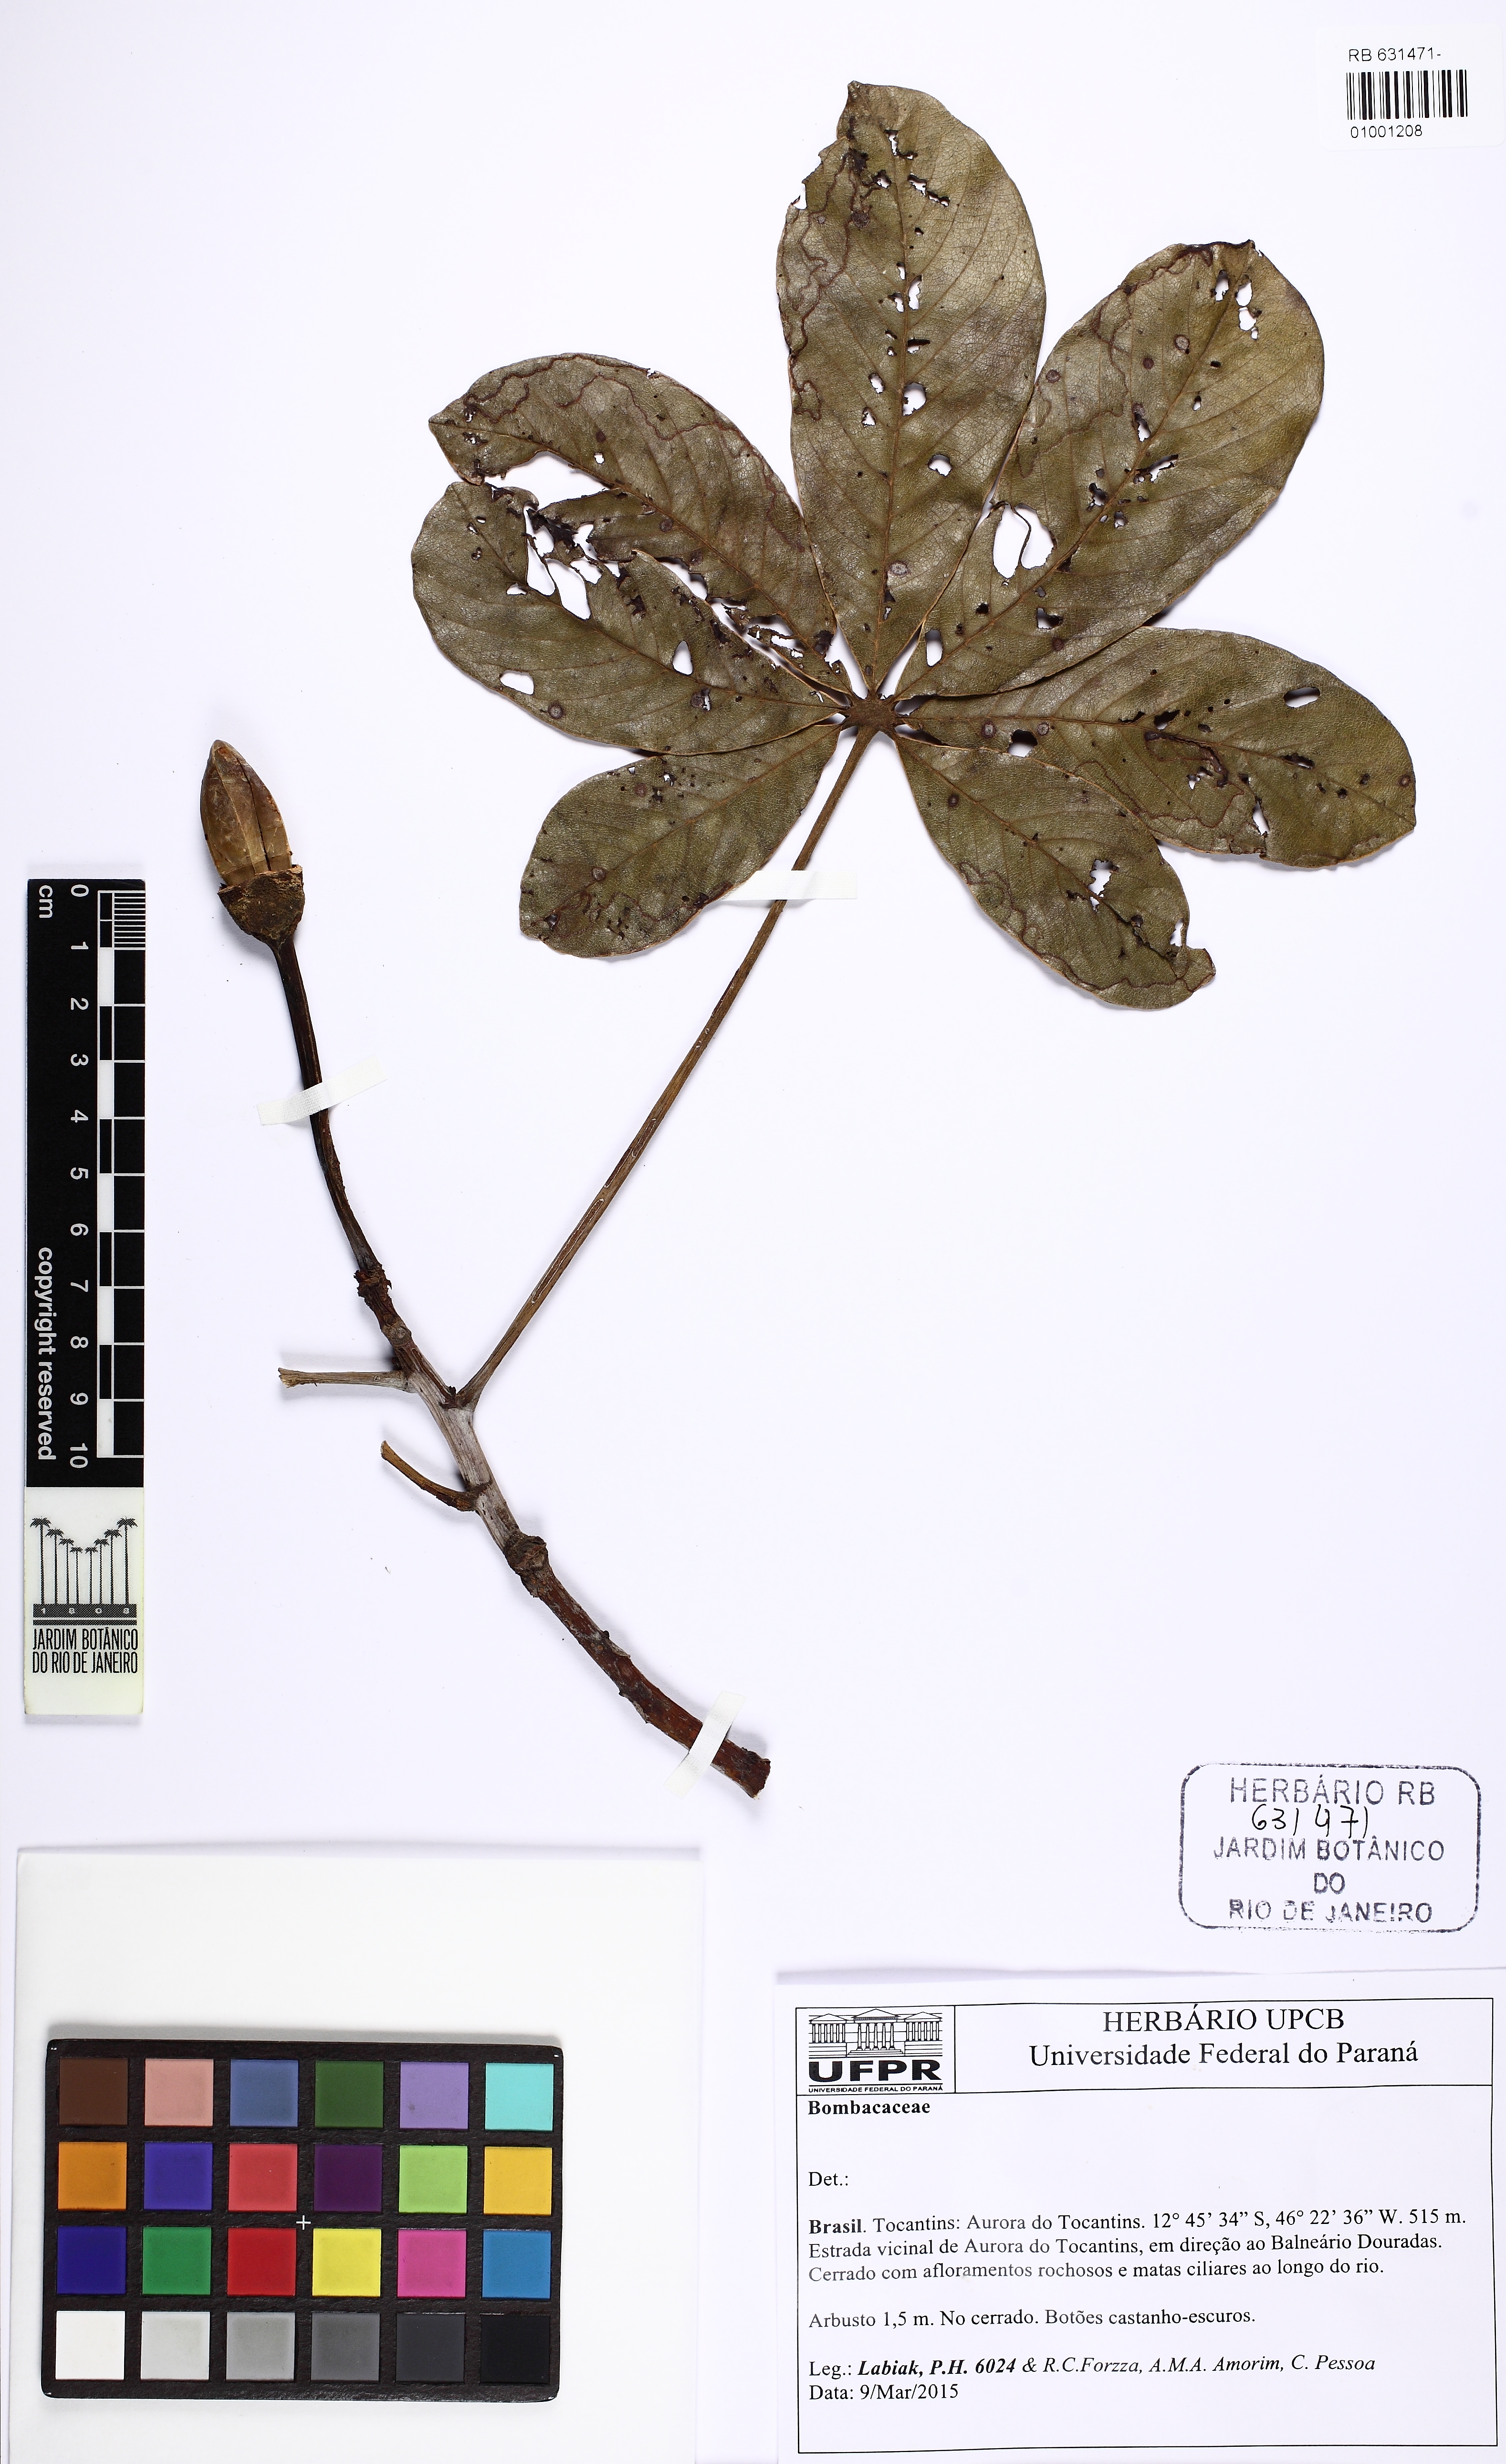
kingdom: Plantae
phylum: Tracheophyta
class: Magnoliopsida
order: Malvales
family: Malvaceae
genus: Pseudobombax
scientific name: Pseudobombax marginatum
